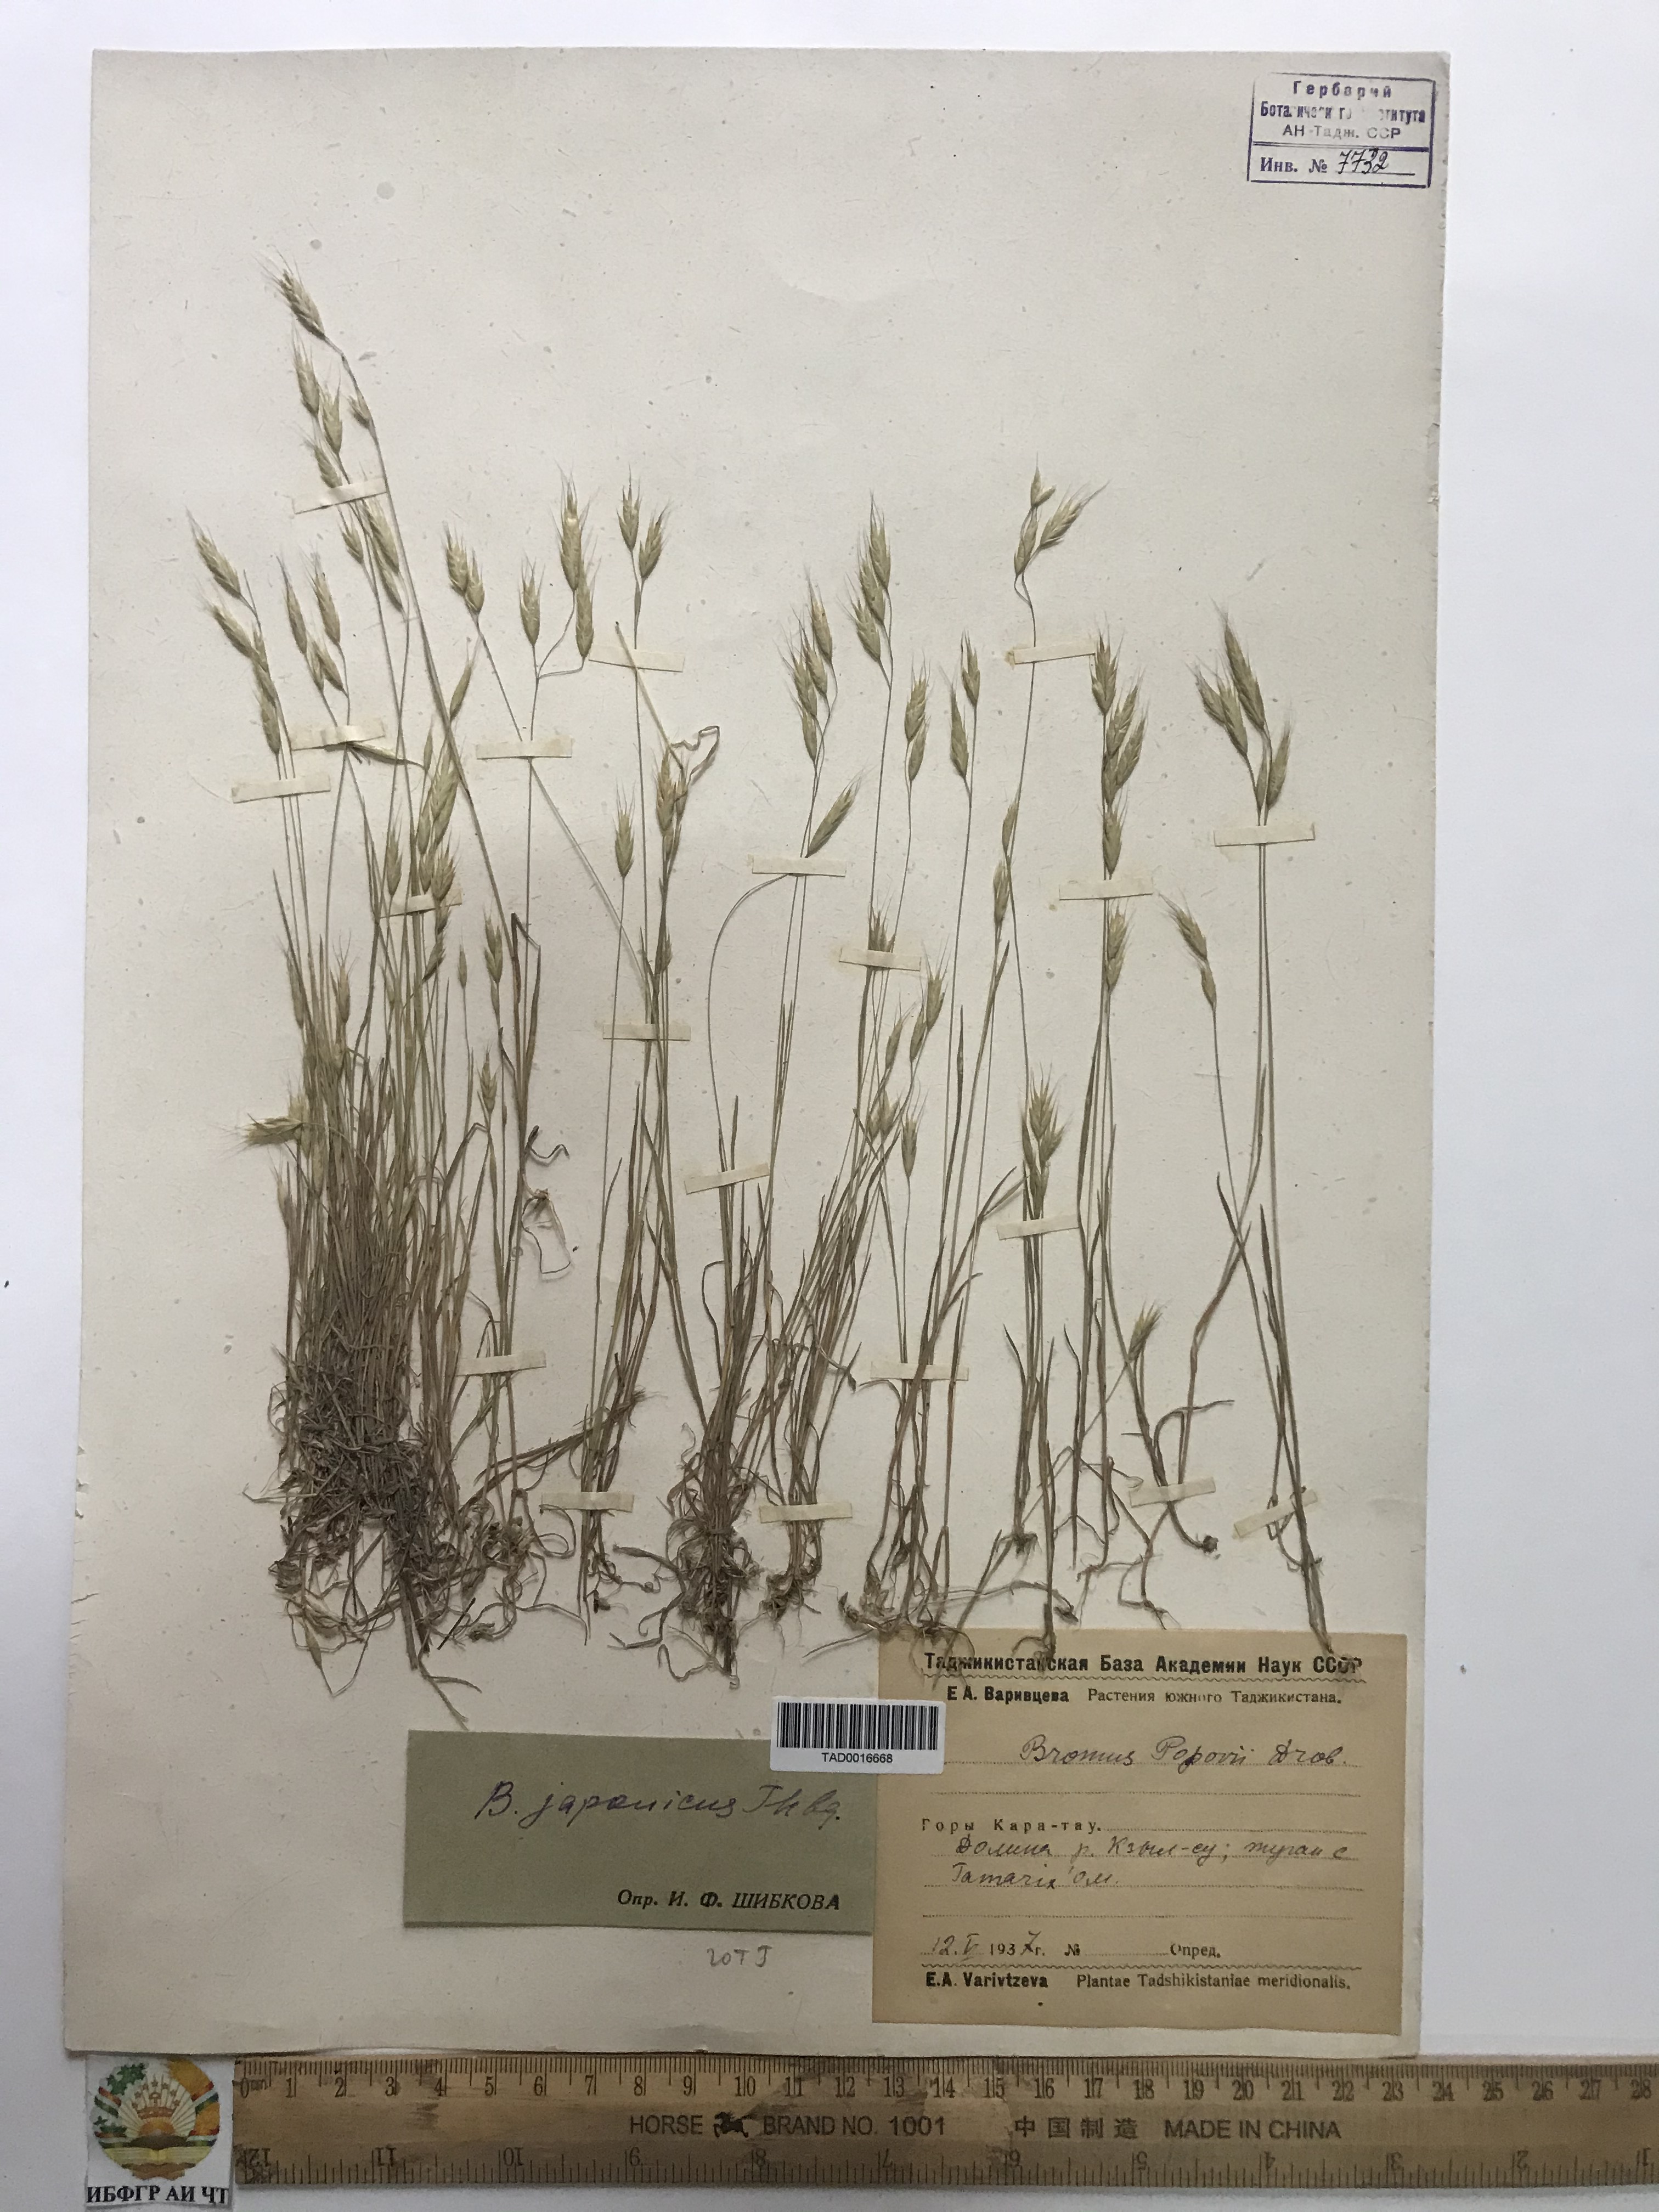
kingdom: Plantae
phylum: Tracheophyta
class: Liliopsida
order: Poales
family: Poaceae
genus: Bromus
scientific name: Bromus japonicus
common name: Japanese brome
